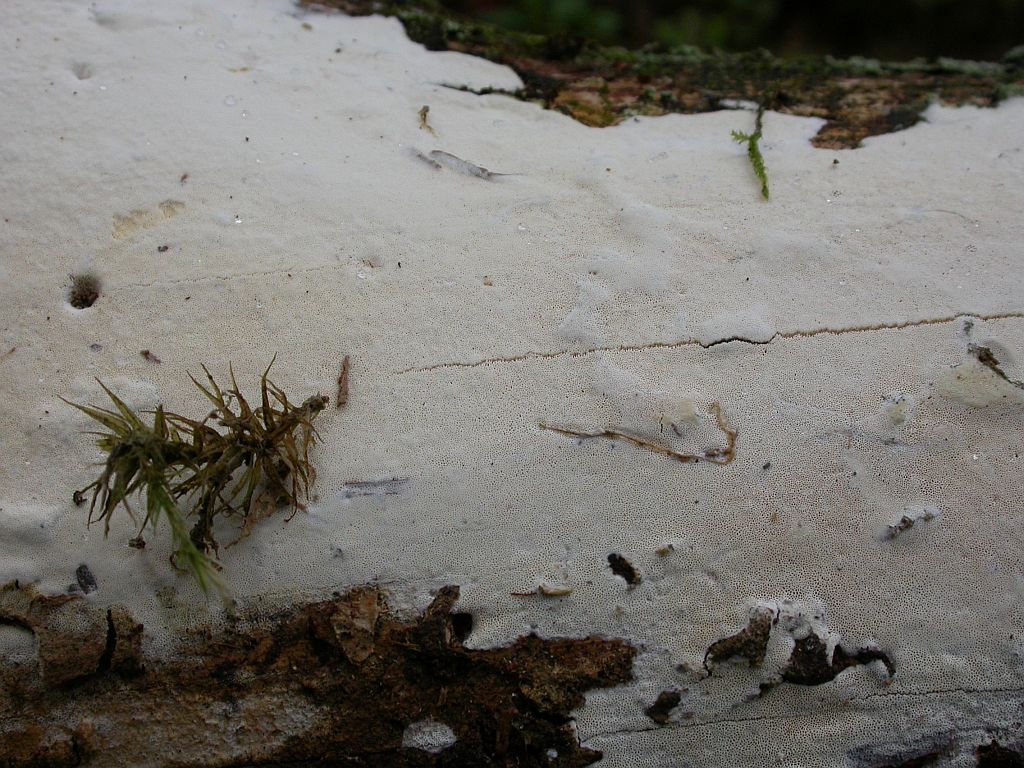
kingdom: Fungi
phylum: Basidiomycota
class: Agaricomycetes
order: Hymenochaetales
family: Rickenellaceae
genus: Sidera
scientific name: Sidera vulgaris
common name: fin flødeporesvamp
